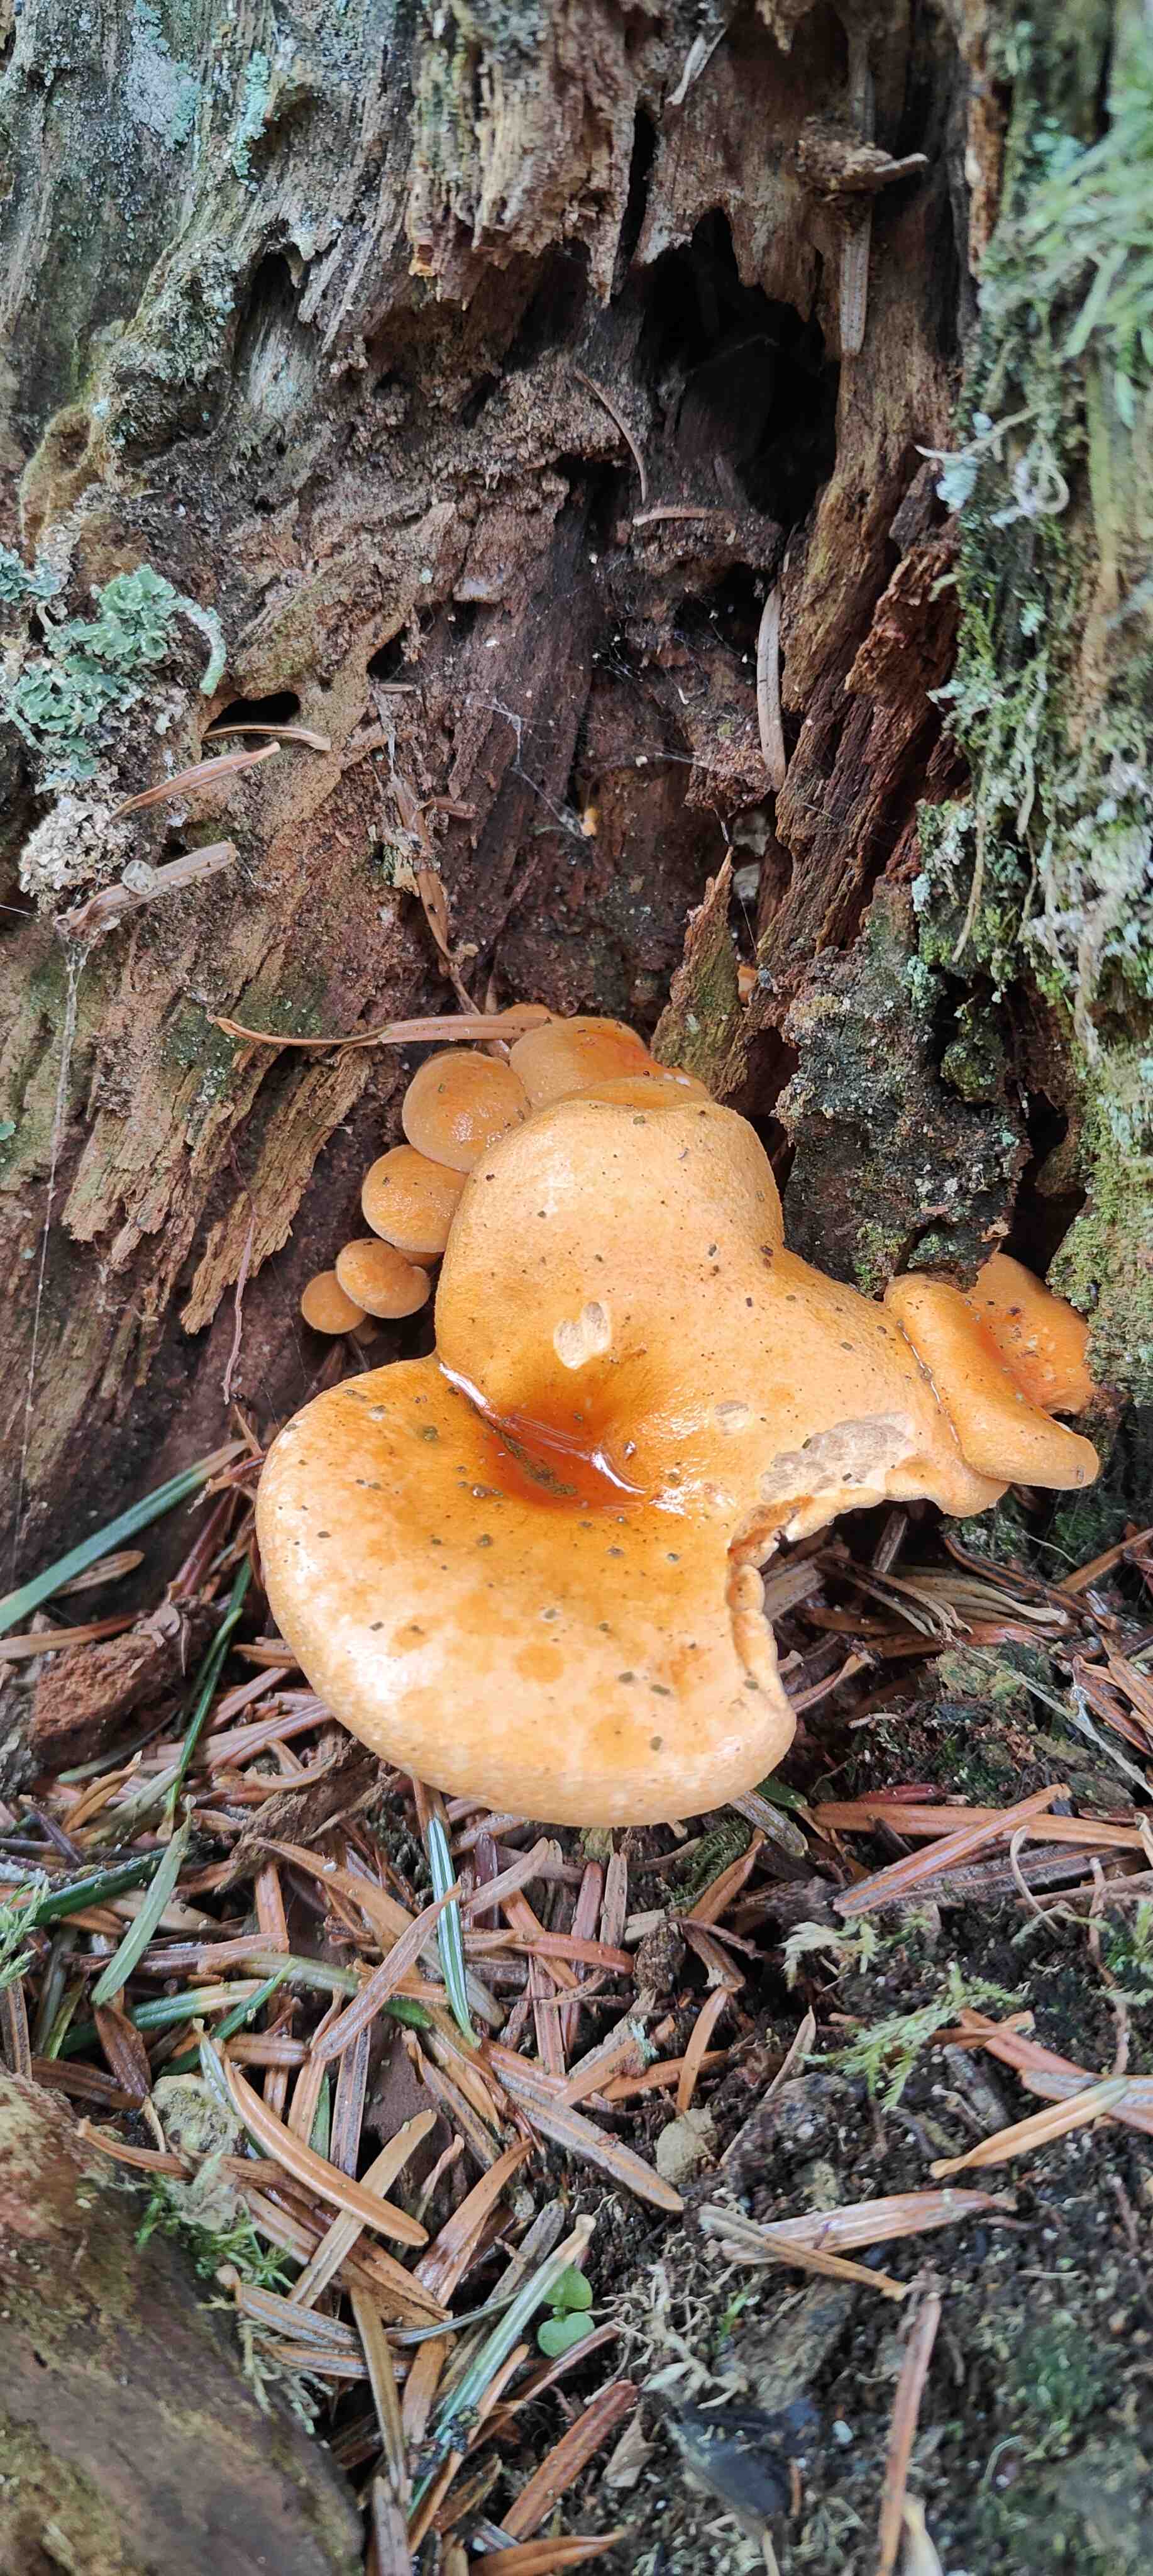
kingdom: Fungi
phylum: Basidiomycota
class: Agaricomycetes
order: Boletales
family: Hygrophoropsidaceae
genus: Hygrophoropsis
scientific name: Hygrophoropsis aurantiaca
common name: almindelig orangekantarel
